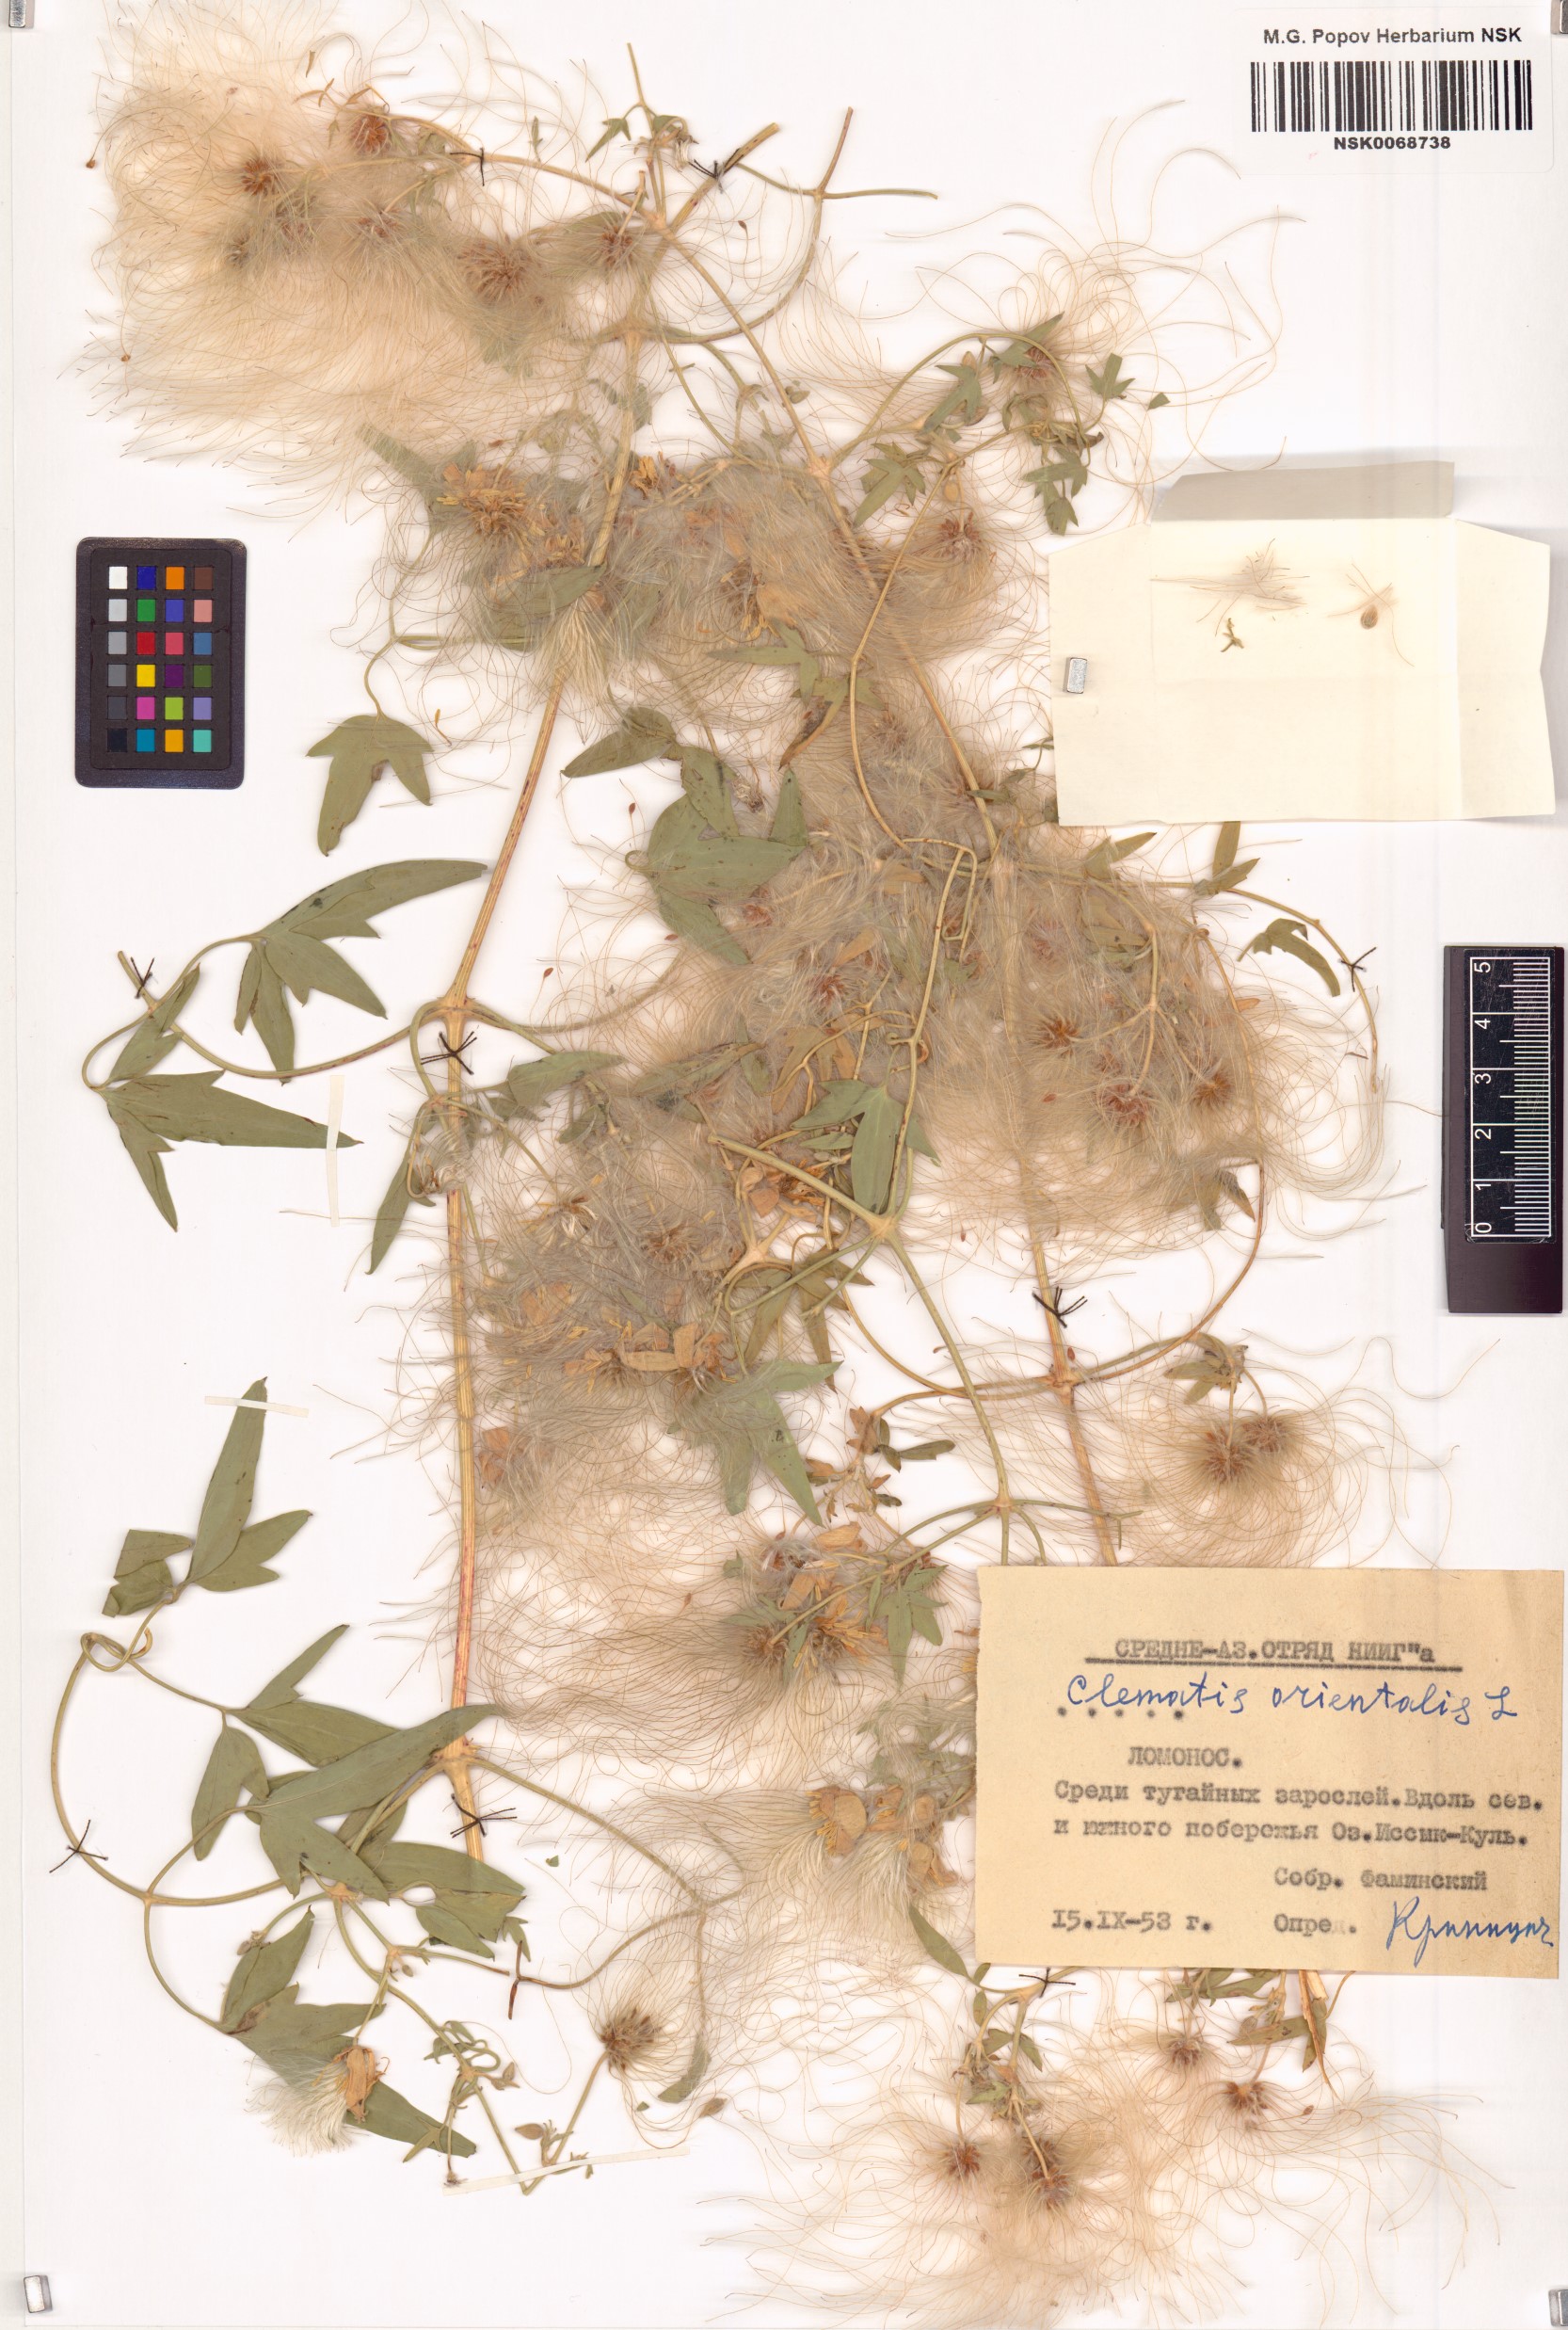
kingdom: Plantae
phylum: Tracheophyta
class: Magnoliopsida
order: Ranunculales
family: Ranunculaceae
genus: Clematis
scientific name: Clematis orientalis
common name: Oriental virgin's-bower
